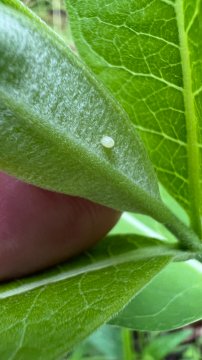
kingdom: Animalia
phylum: Arthropoda
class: Insecta
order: Lepidoptera
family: Nymphalidae
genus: Danaus
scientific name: Danaus plexippus
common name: Monarch
